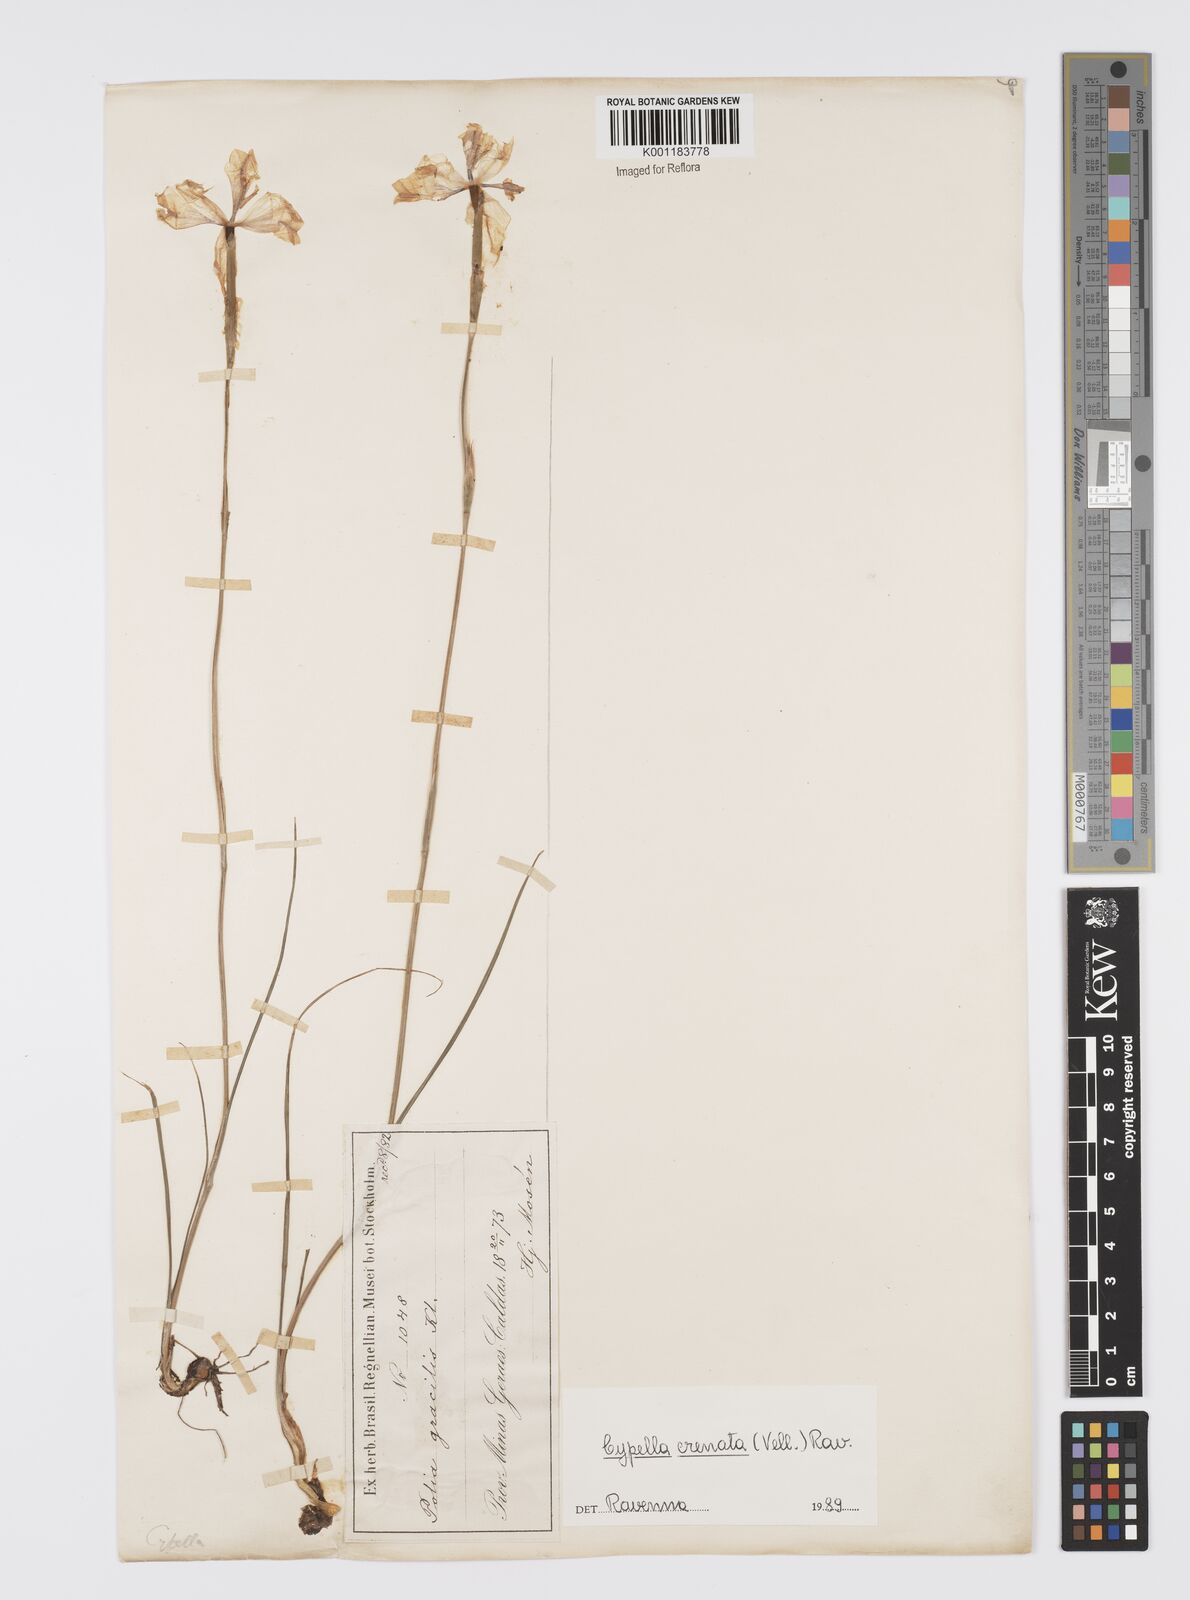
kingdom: Plantae
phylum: Tracheophyta
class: Liliopsida
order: Asparagales
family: Iridaceae
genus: Cypella
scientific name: Cypella crenata
